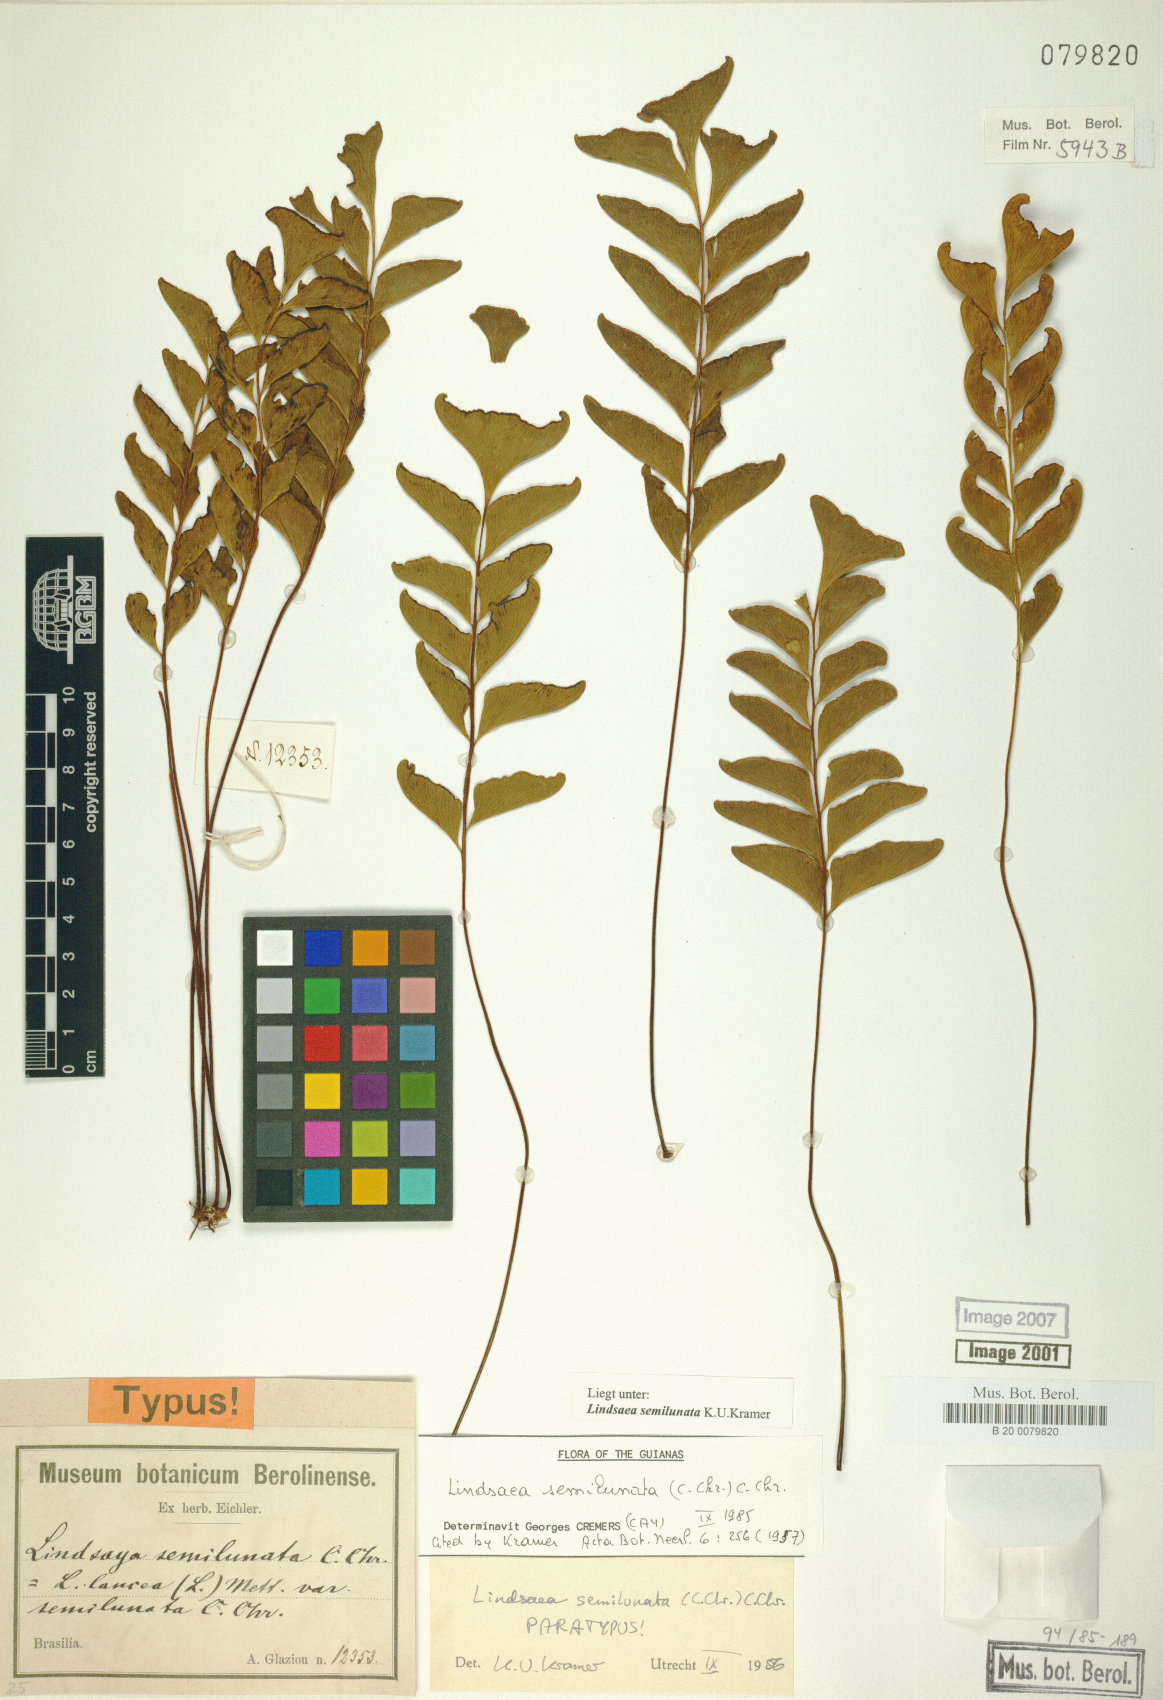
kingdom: Plantae
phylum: Tracheophyta
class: Polypodiopsida
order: Polypodiales
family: Lindsaeaceae
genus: Lindsaea
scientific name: Lindsaea semilunata
